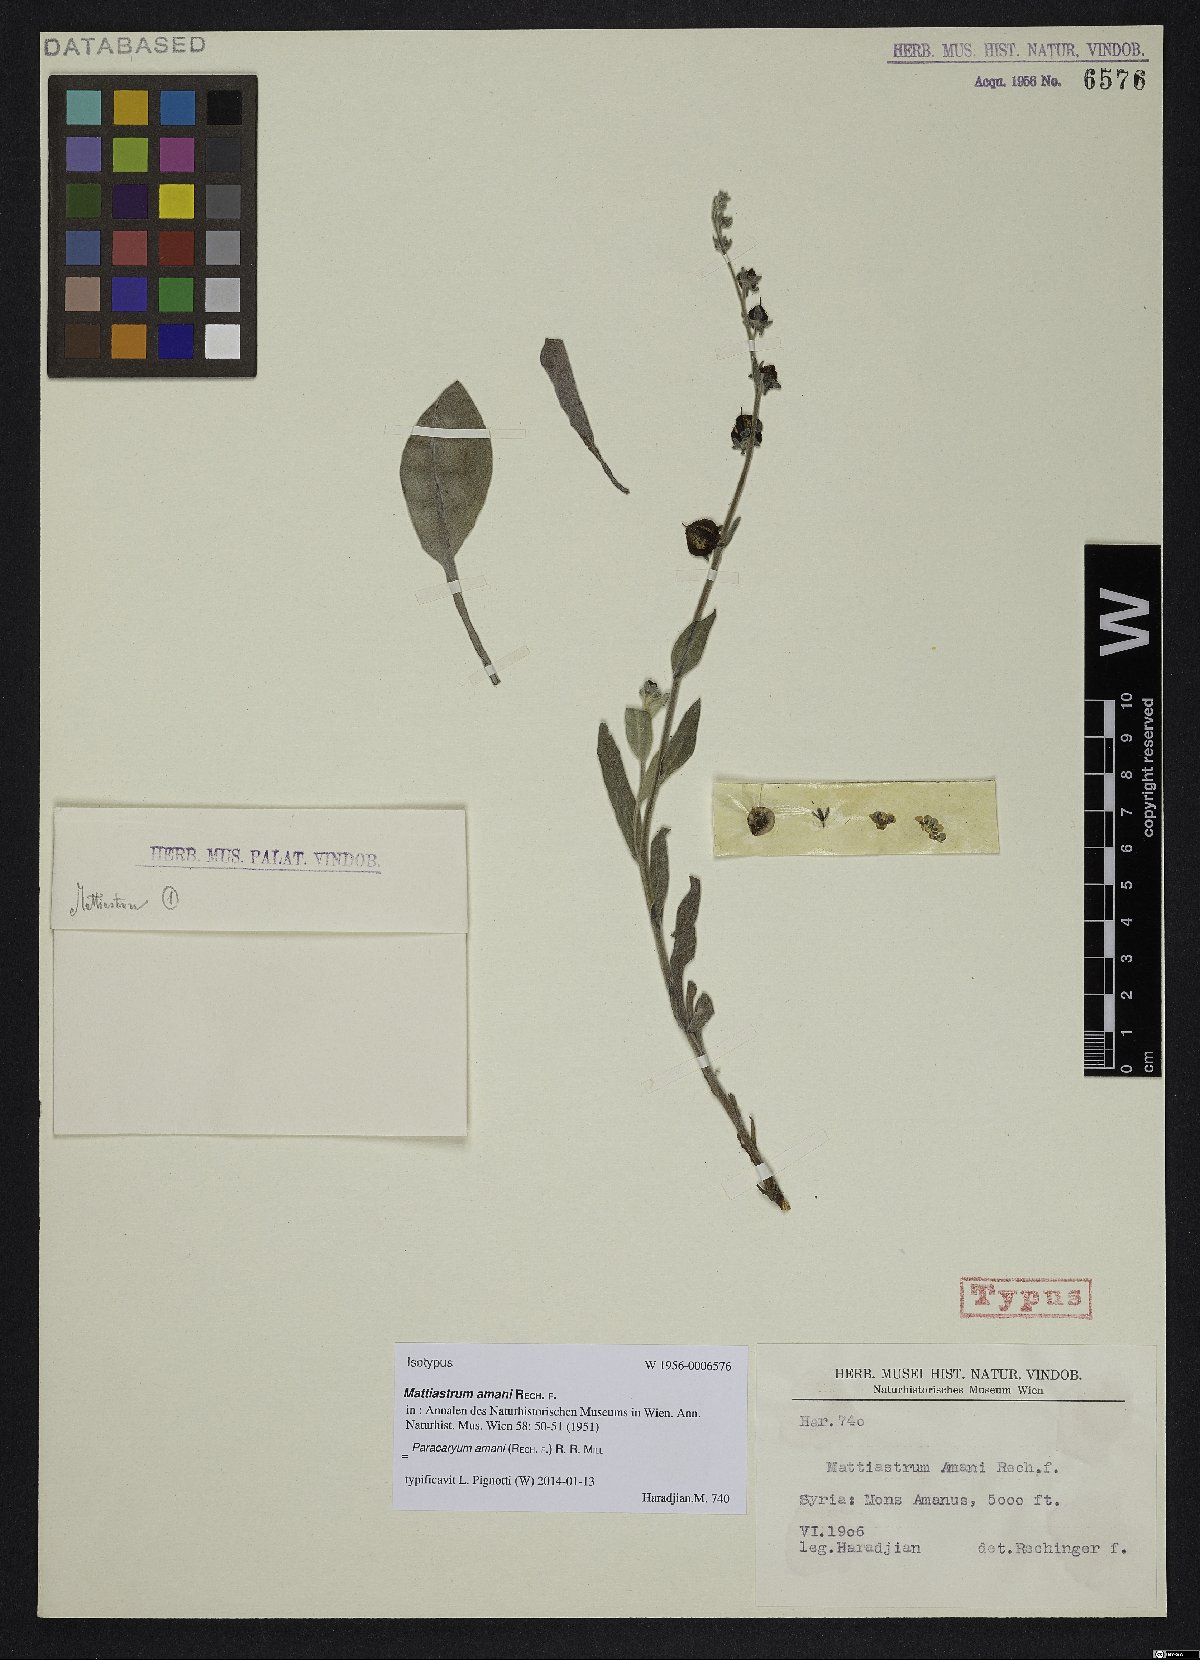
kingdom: Plantae
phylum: Tracheophyta
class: Magnoliopsida
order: Boraginales
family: Boraginaceae
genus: Paracaryum
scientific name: Paracaryum amani
